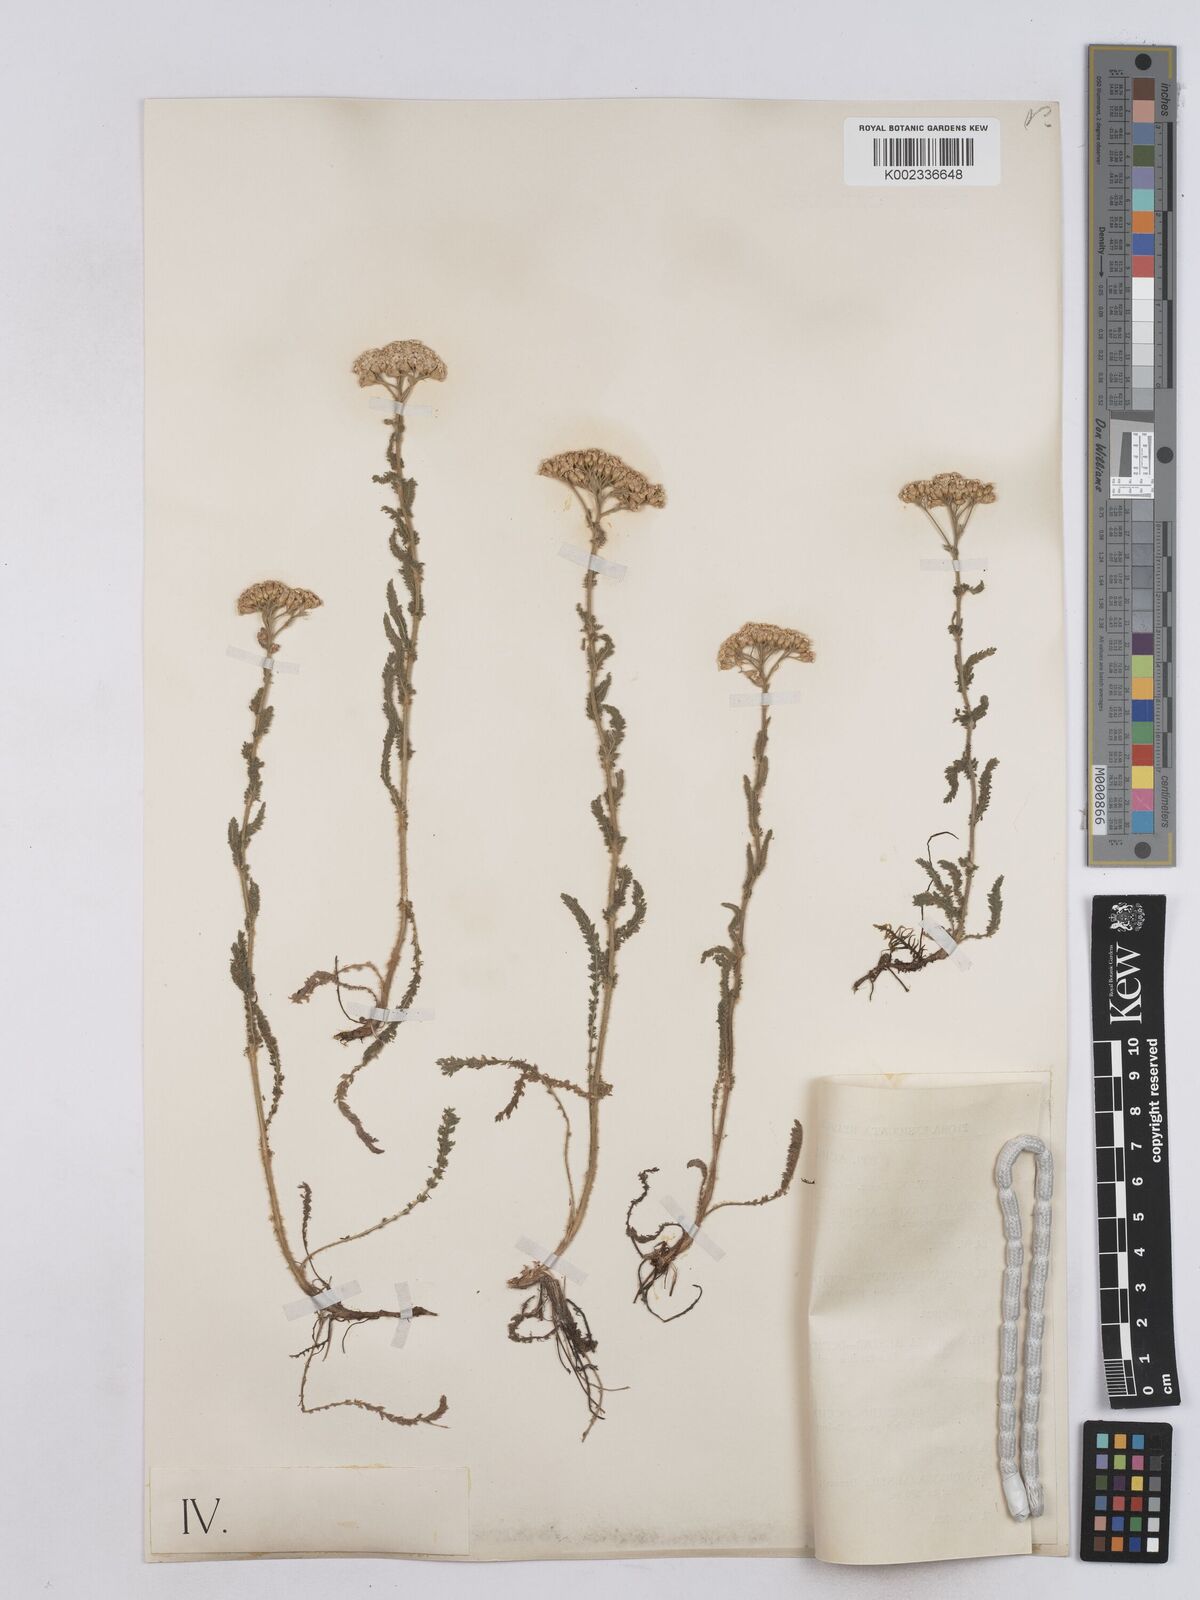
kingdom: Plantae
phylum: Tracheophyta
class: Magnoliopsida
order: Asterales
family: Asteraceae
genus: Achillea
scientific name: Achillea setacea
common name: Bristly yarrow
